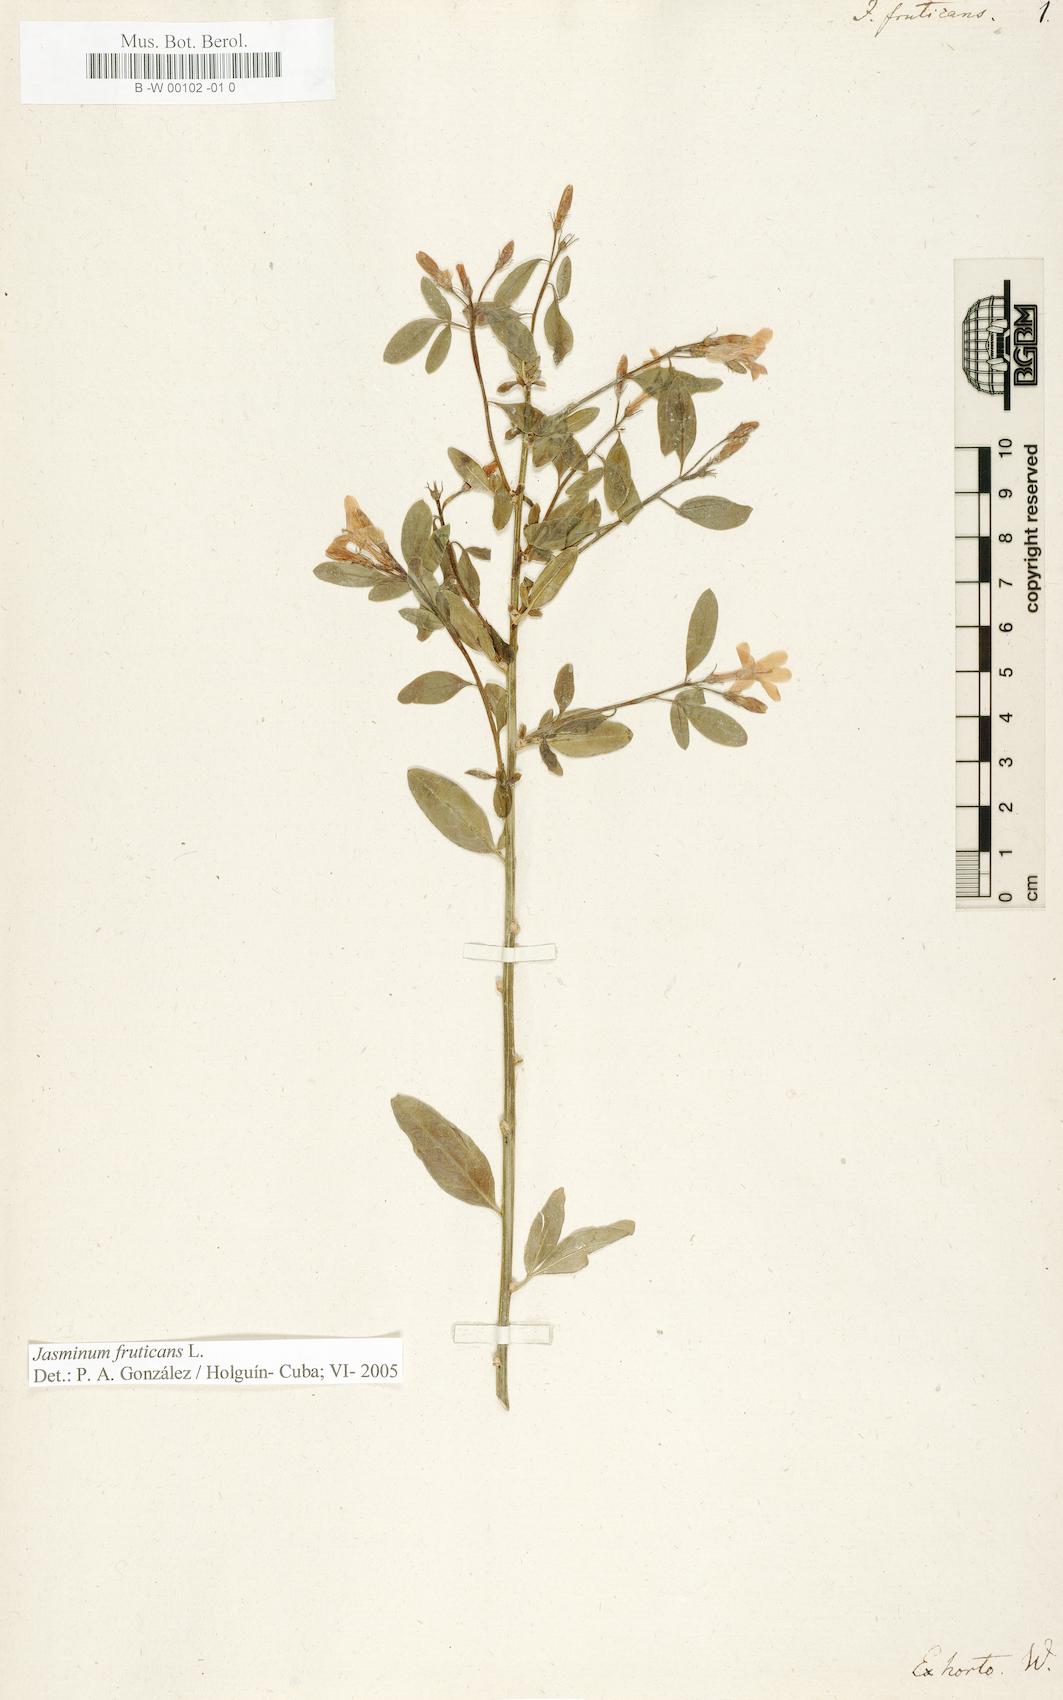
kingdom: Plantae
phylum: Tracheophyta
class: Magnoliopsida
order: Lamiales
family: Oleaceae
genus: Chrysojasminum
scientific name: Chrysojasminum fruticans
